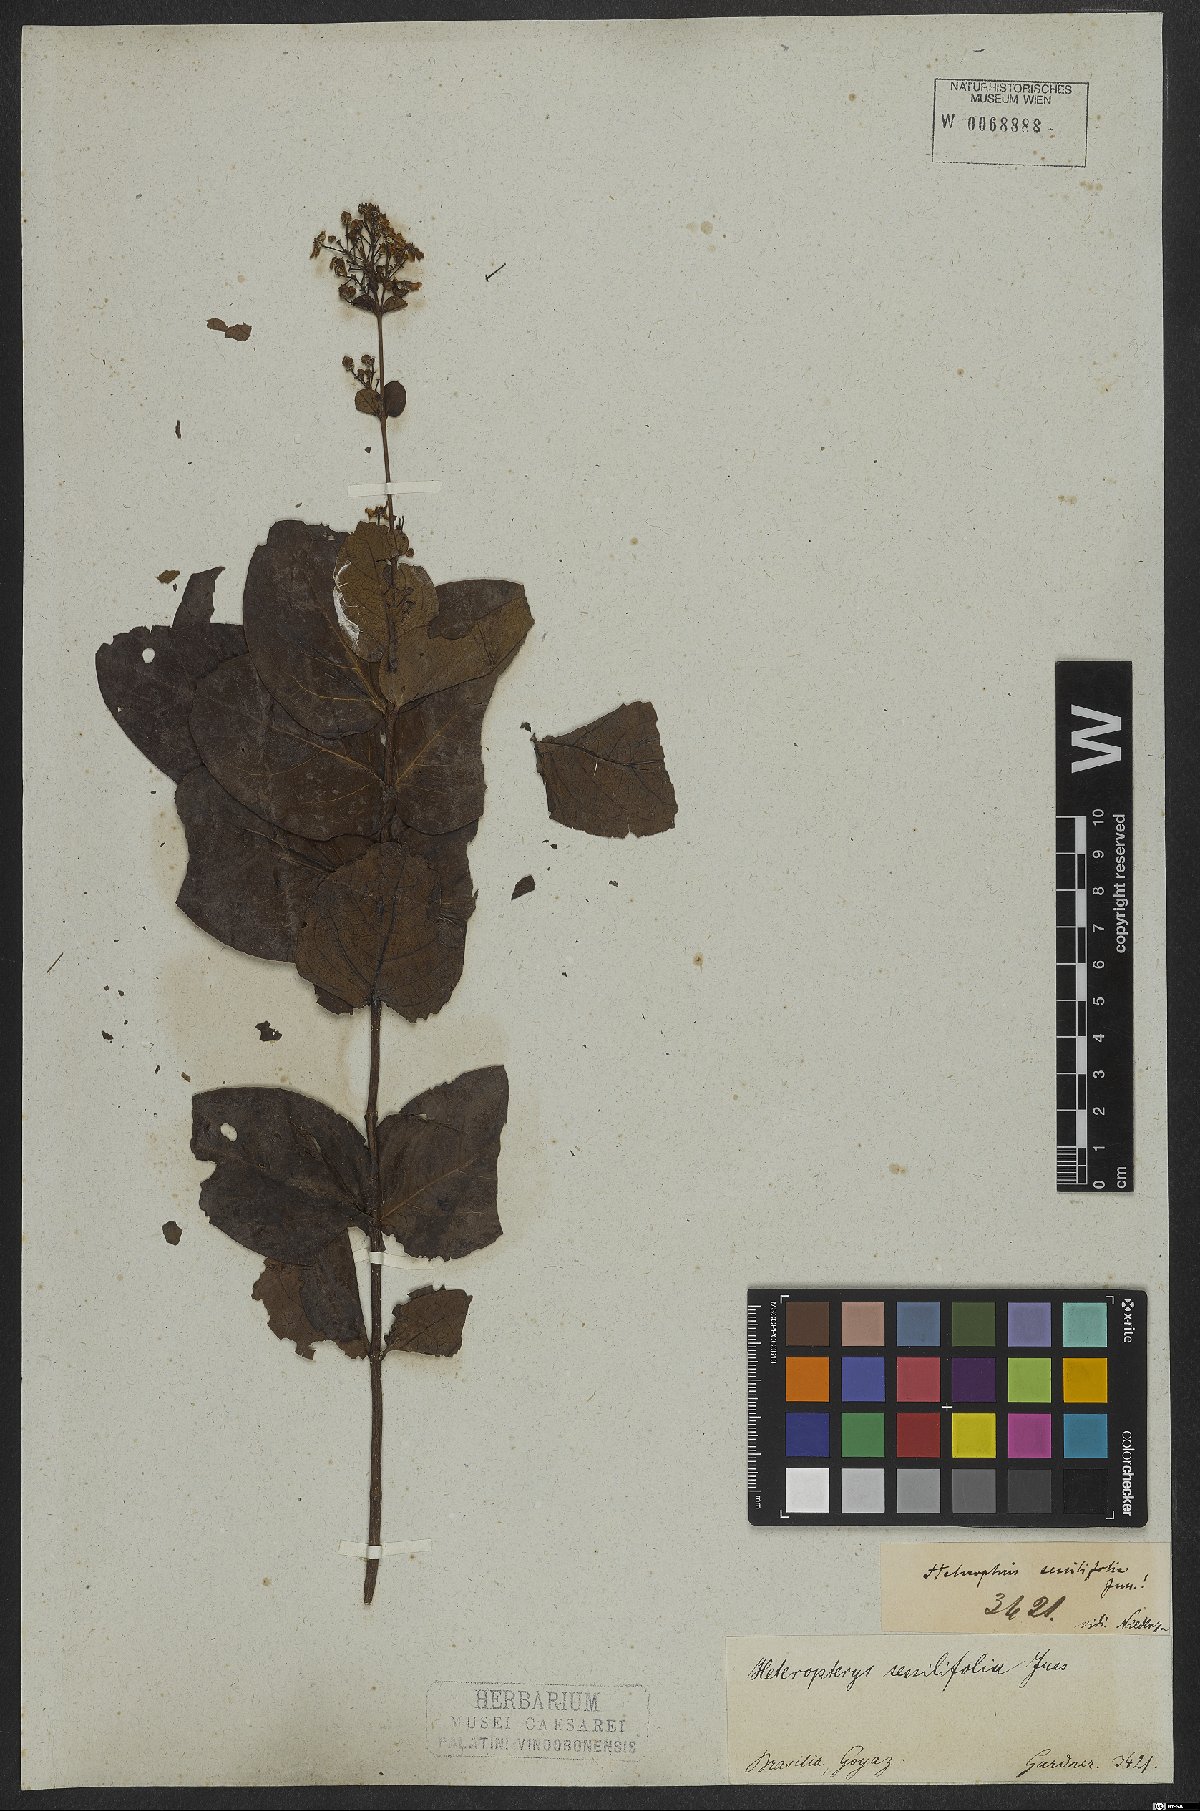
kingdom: Plantae
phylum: Tracheophyta
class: Magnoliopsida
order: Malpighiales
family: Malpighiaceae
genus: Heteropterys
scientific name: Heteropterys sessilifolia
